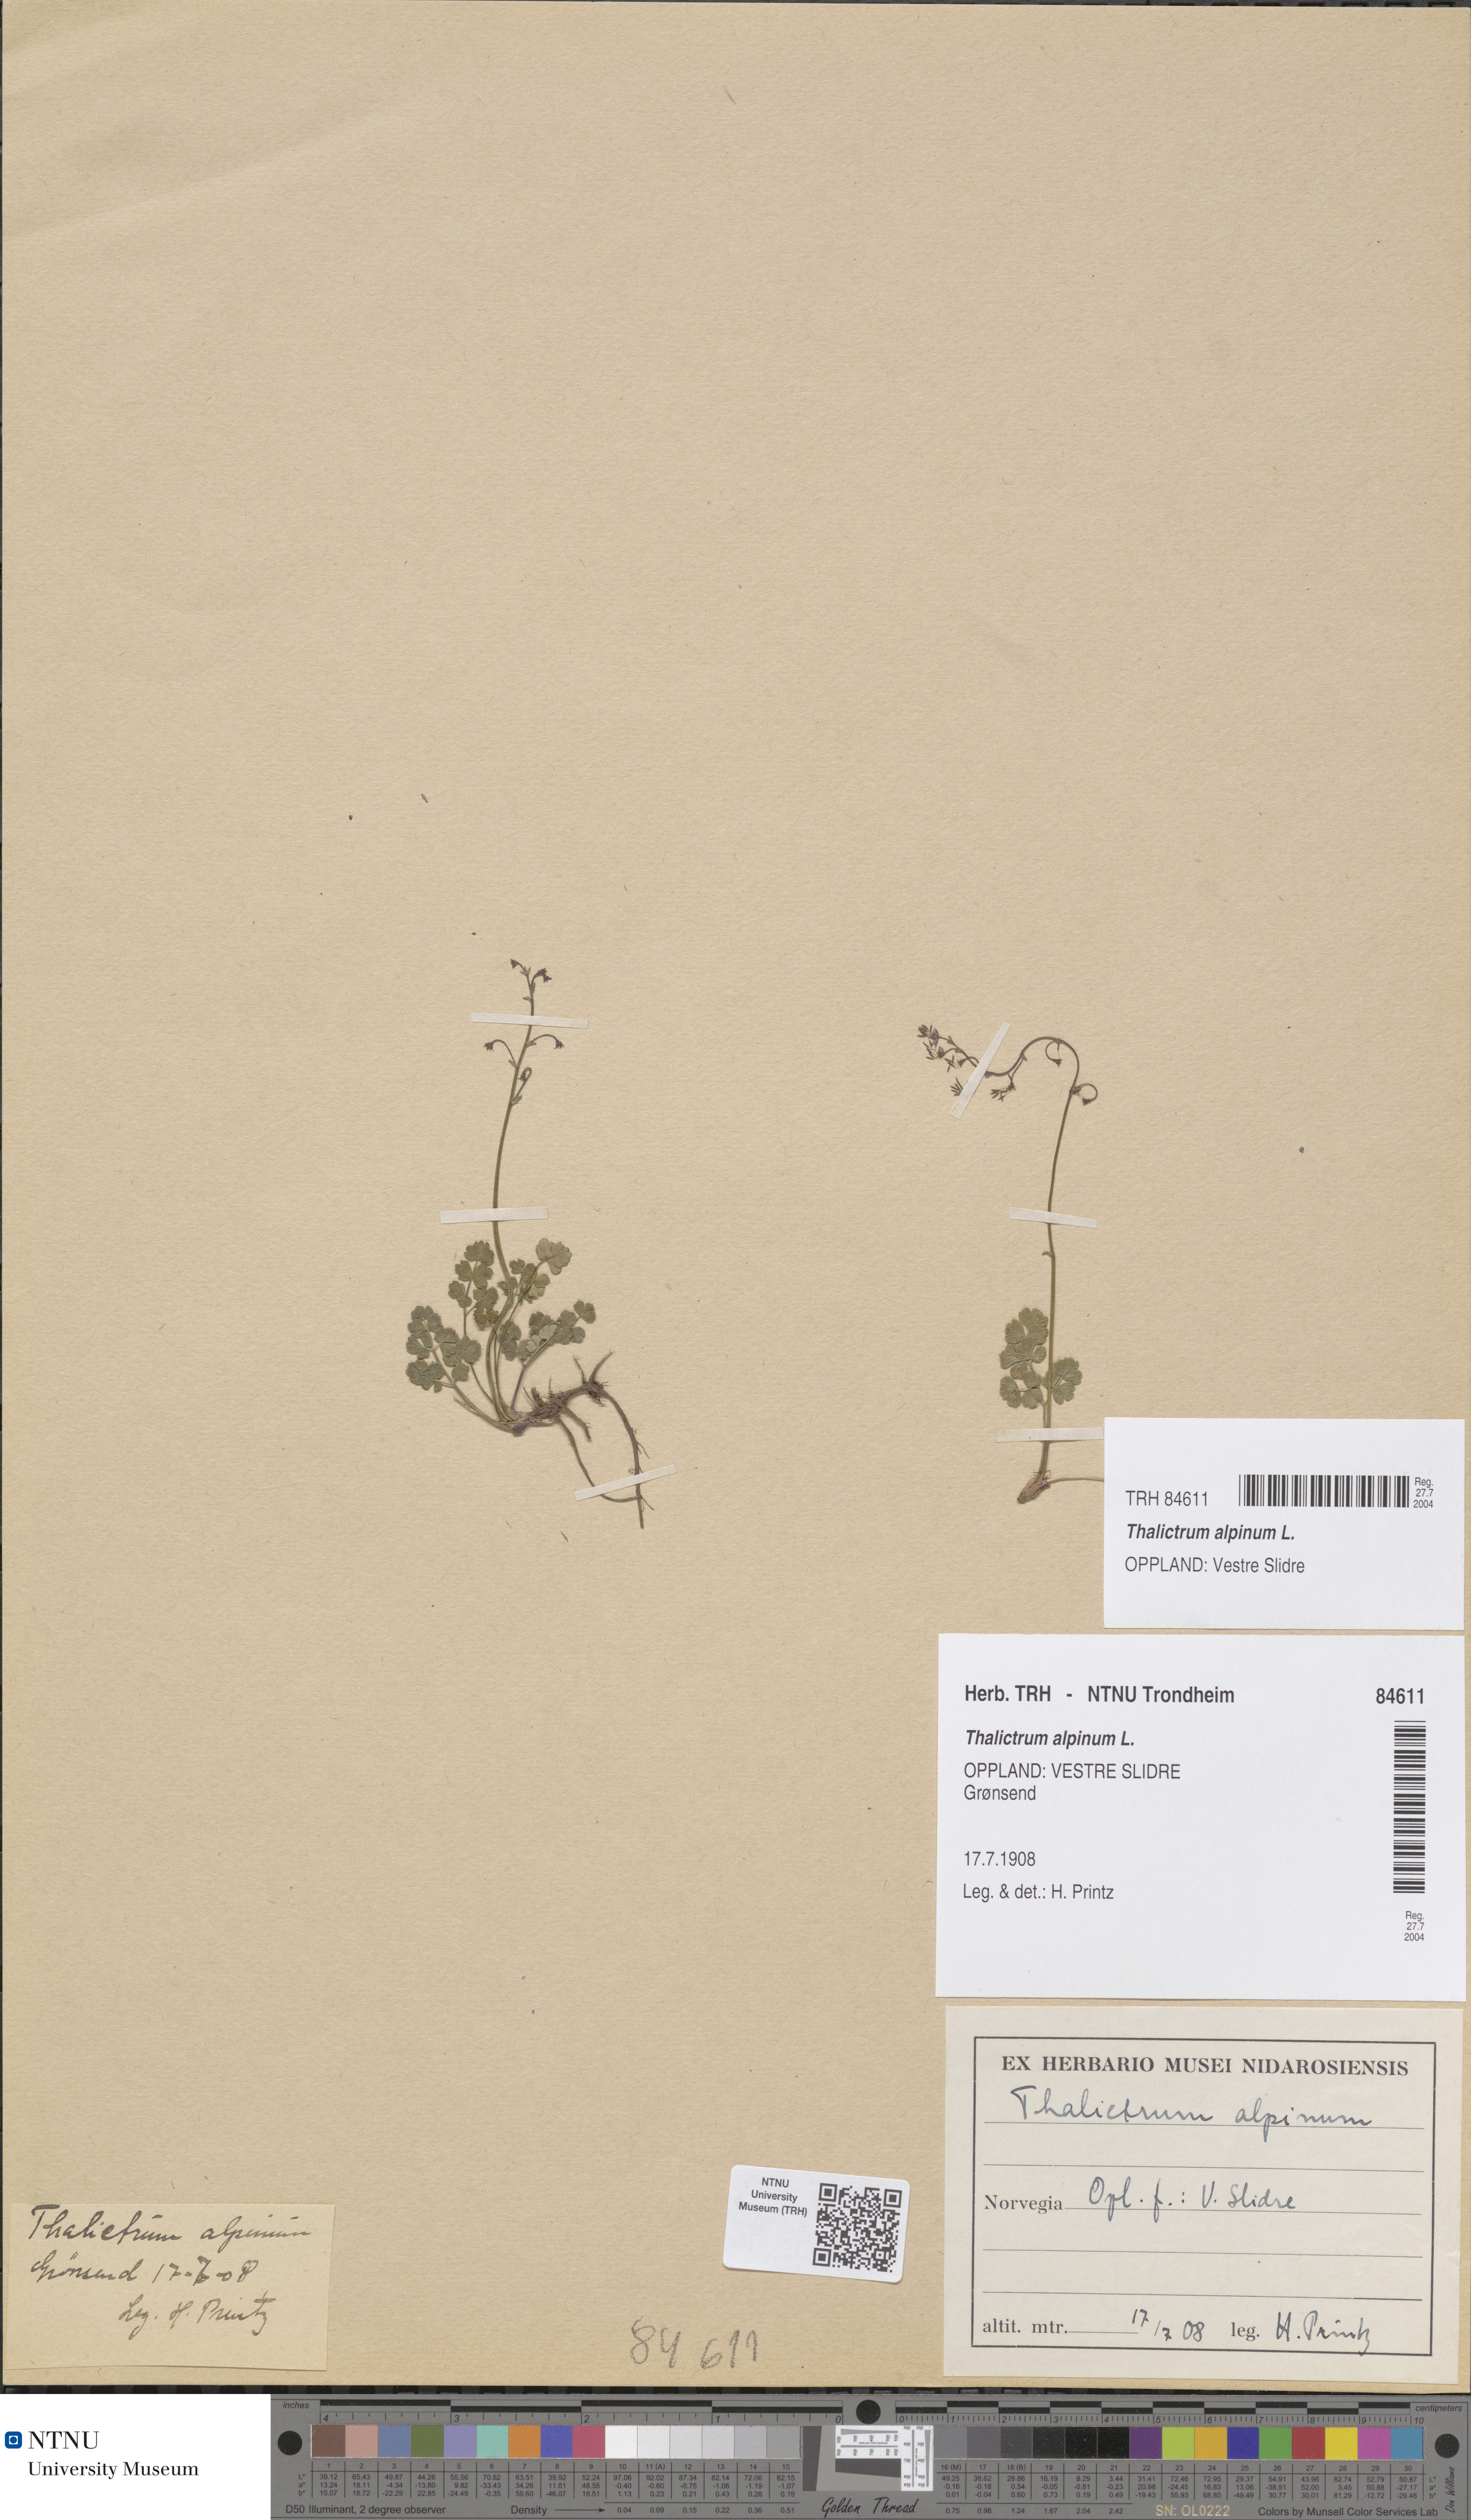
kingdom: Plantae
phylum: Tracheophyta
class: Magnoliopsida
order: Ranunculales
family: Ranunculaceae
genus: Thalictrum
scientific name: Thalictrum alpinum
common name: Alpine meadow-rue
